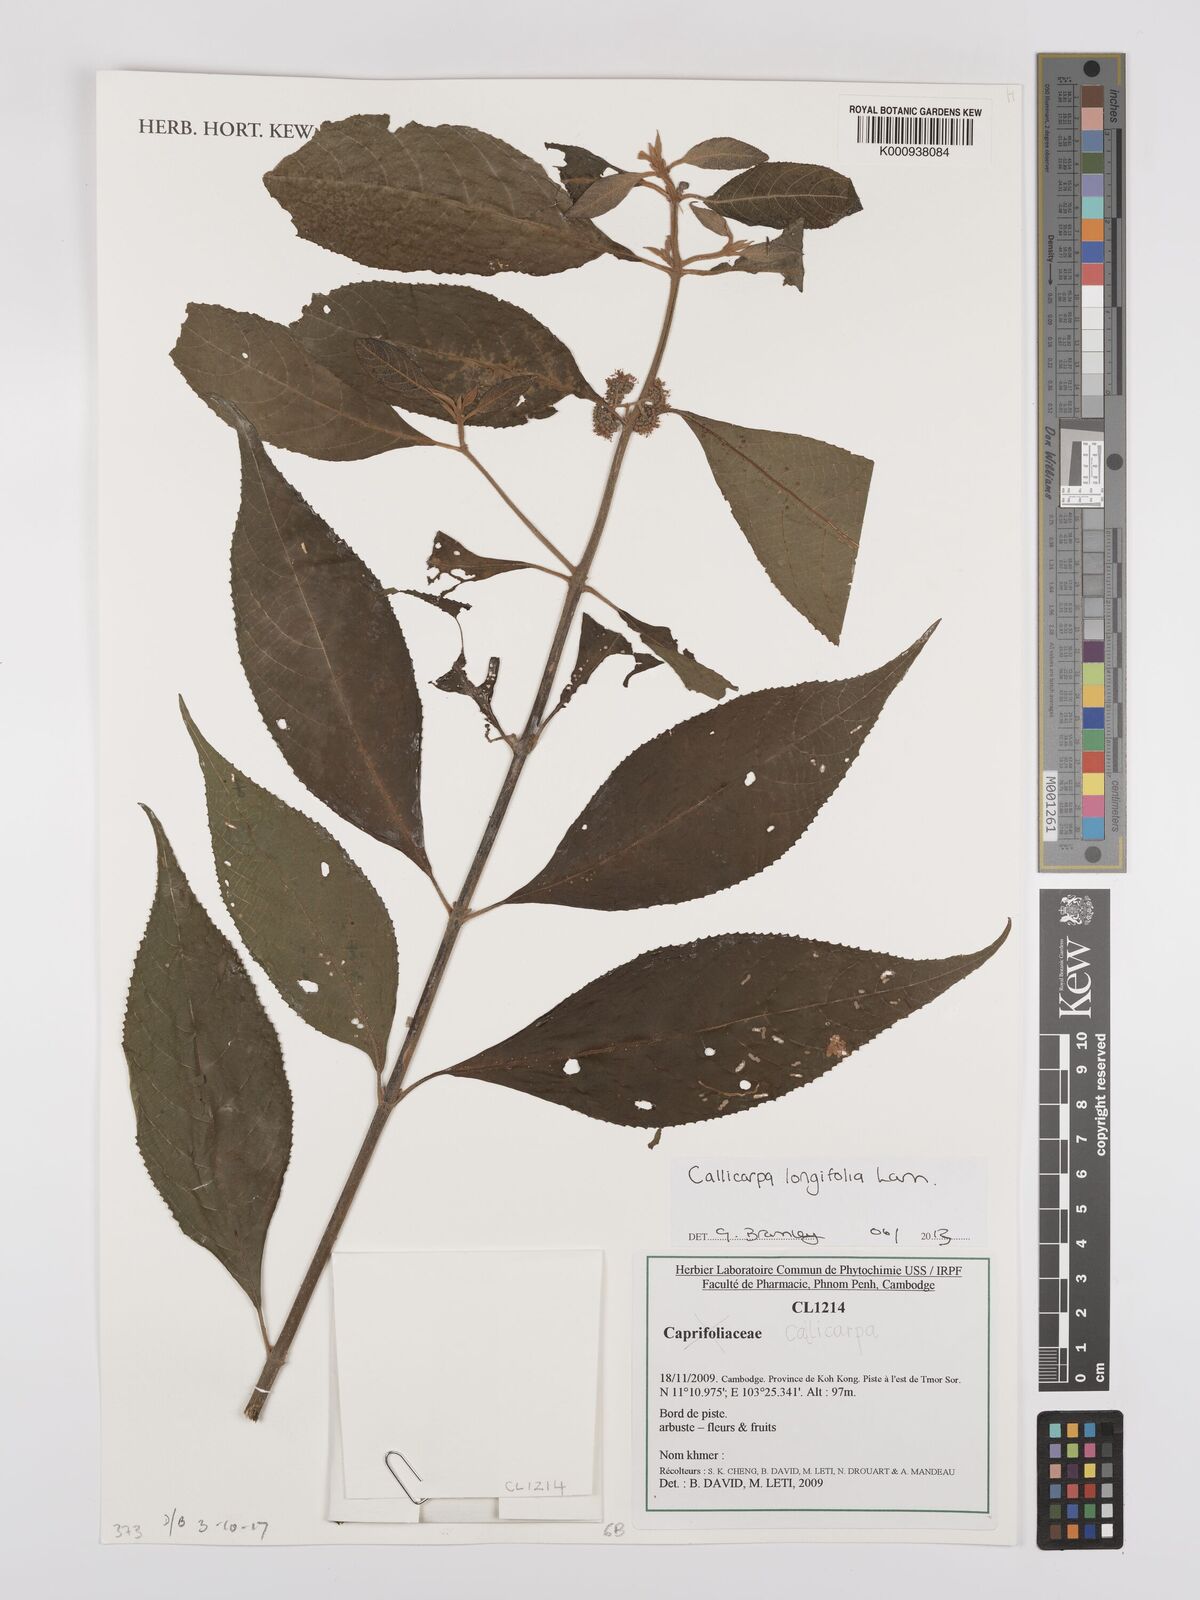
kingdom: Plantae
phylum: Tracheophyta
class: Magnoliopsida
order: Lamiales
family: Lamiaceae
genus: Callicarpa
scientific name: Callicarpa longifolia
